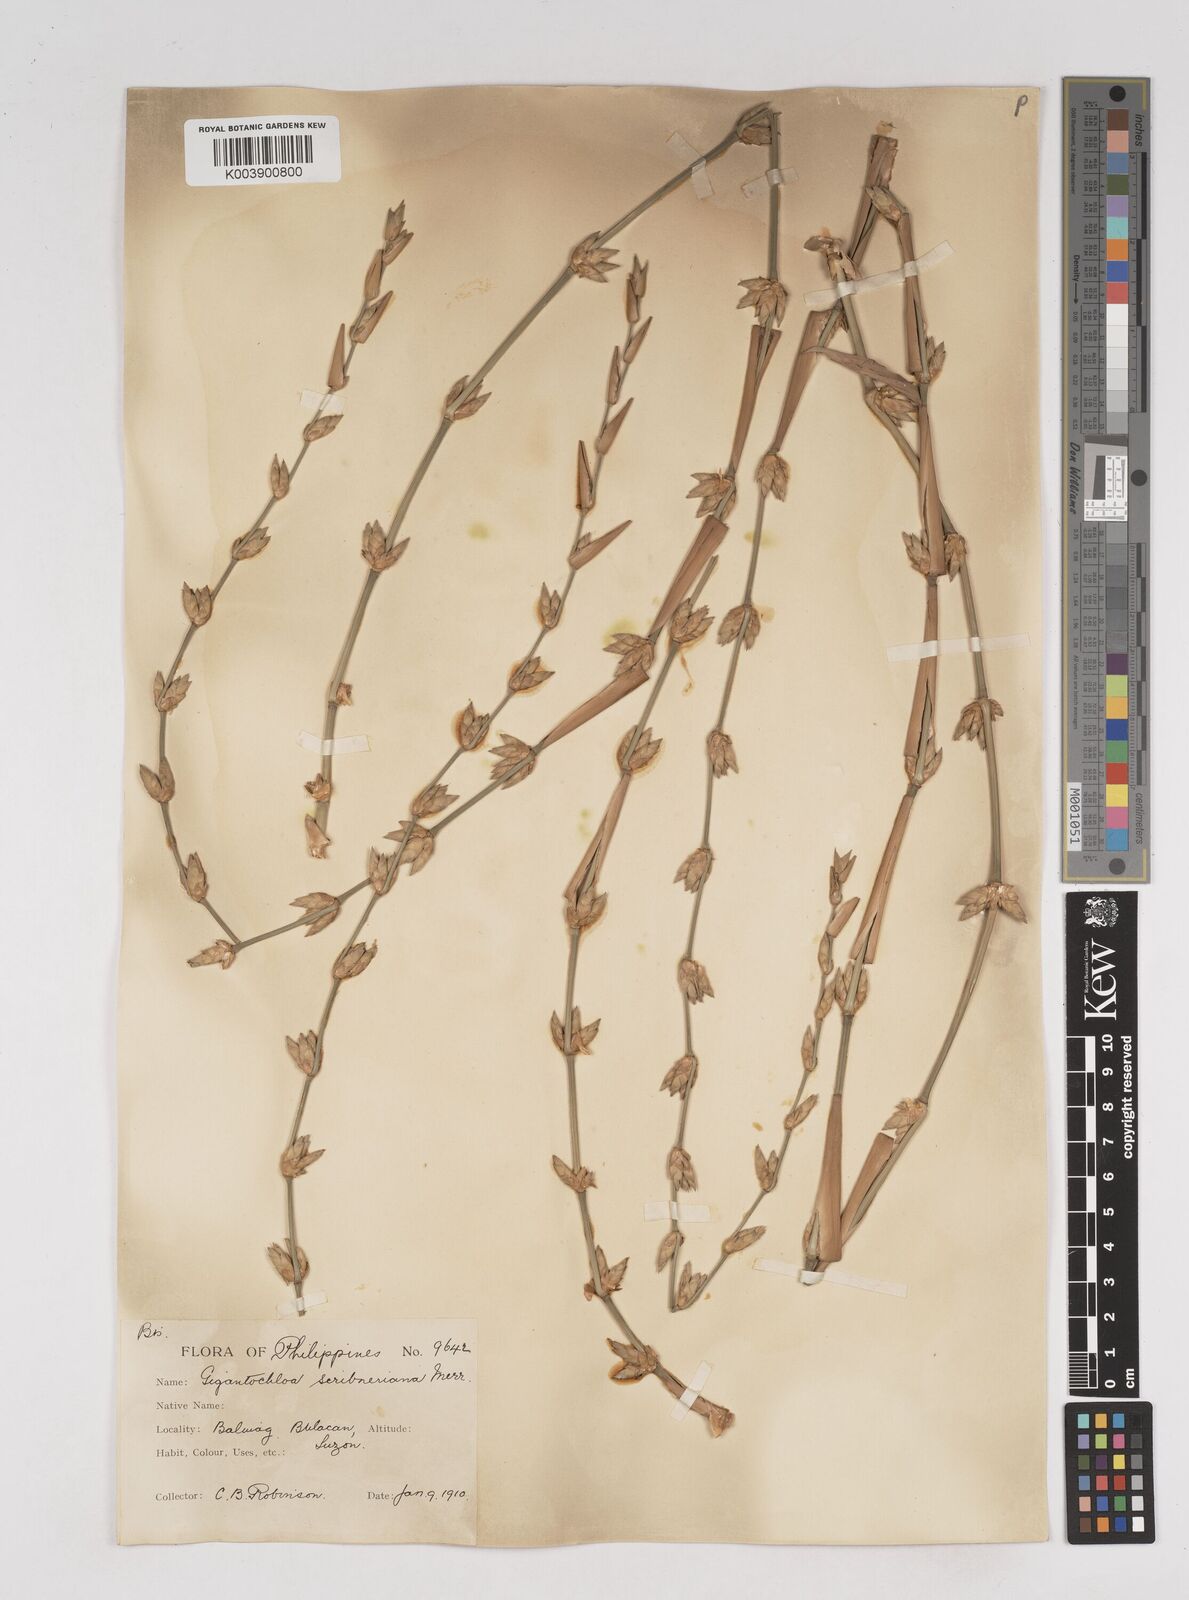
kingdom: Plantae
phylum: Tracheophyta
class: Liliopsida
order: Poales
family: Poaceae
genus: Gigantochloa
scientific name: Gigantochloa levis
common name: Smooth-shoot gigantochloa
